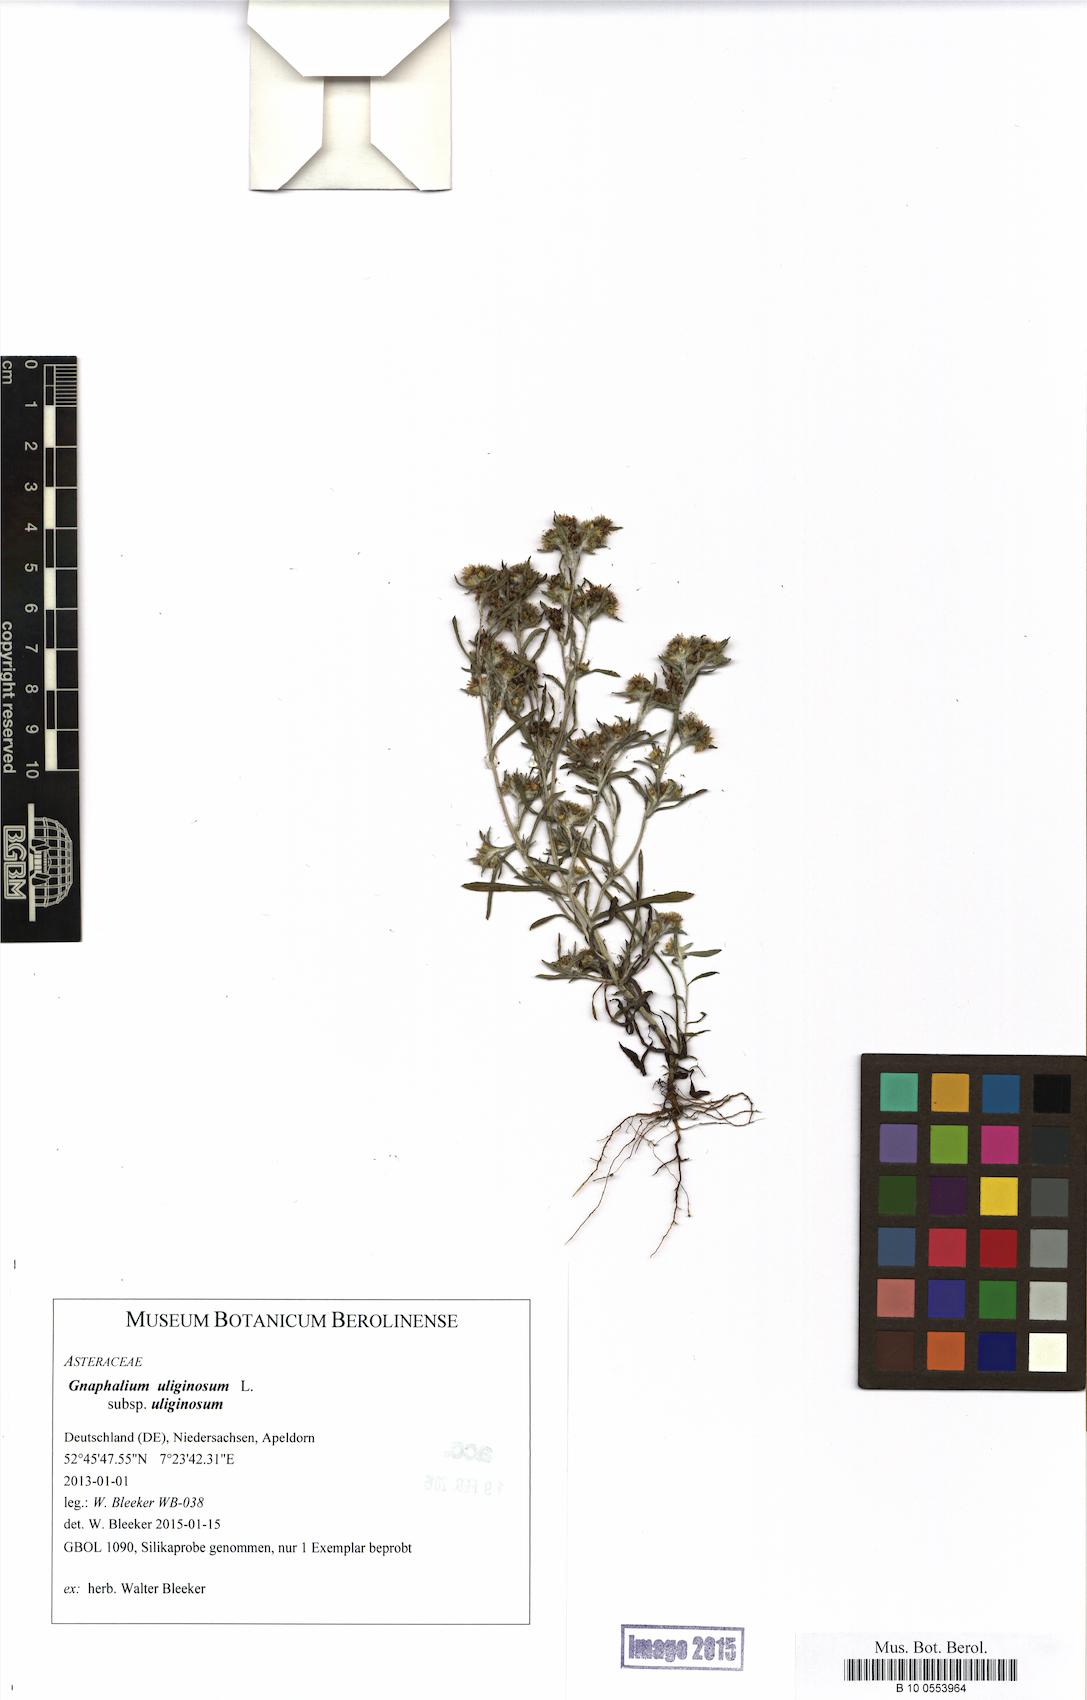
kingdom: Plantae
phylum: Tracheophyta
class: Magnoliopsida
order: Asterales
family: Asteraceae
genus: Gnaphalium
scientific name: Gnaphalium uliginosum
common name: Marsh cudweed
